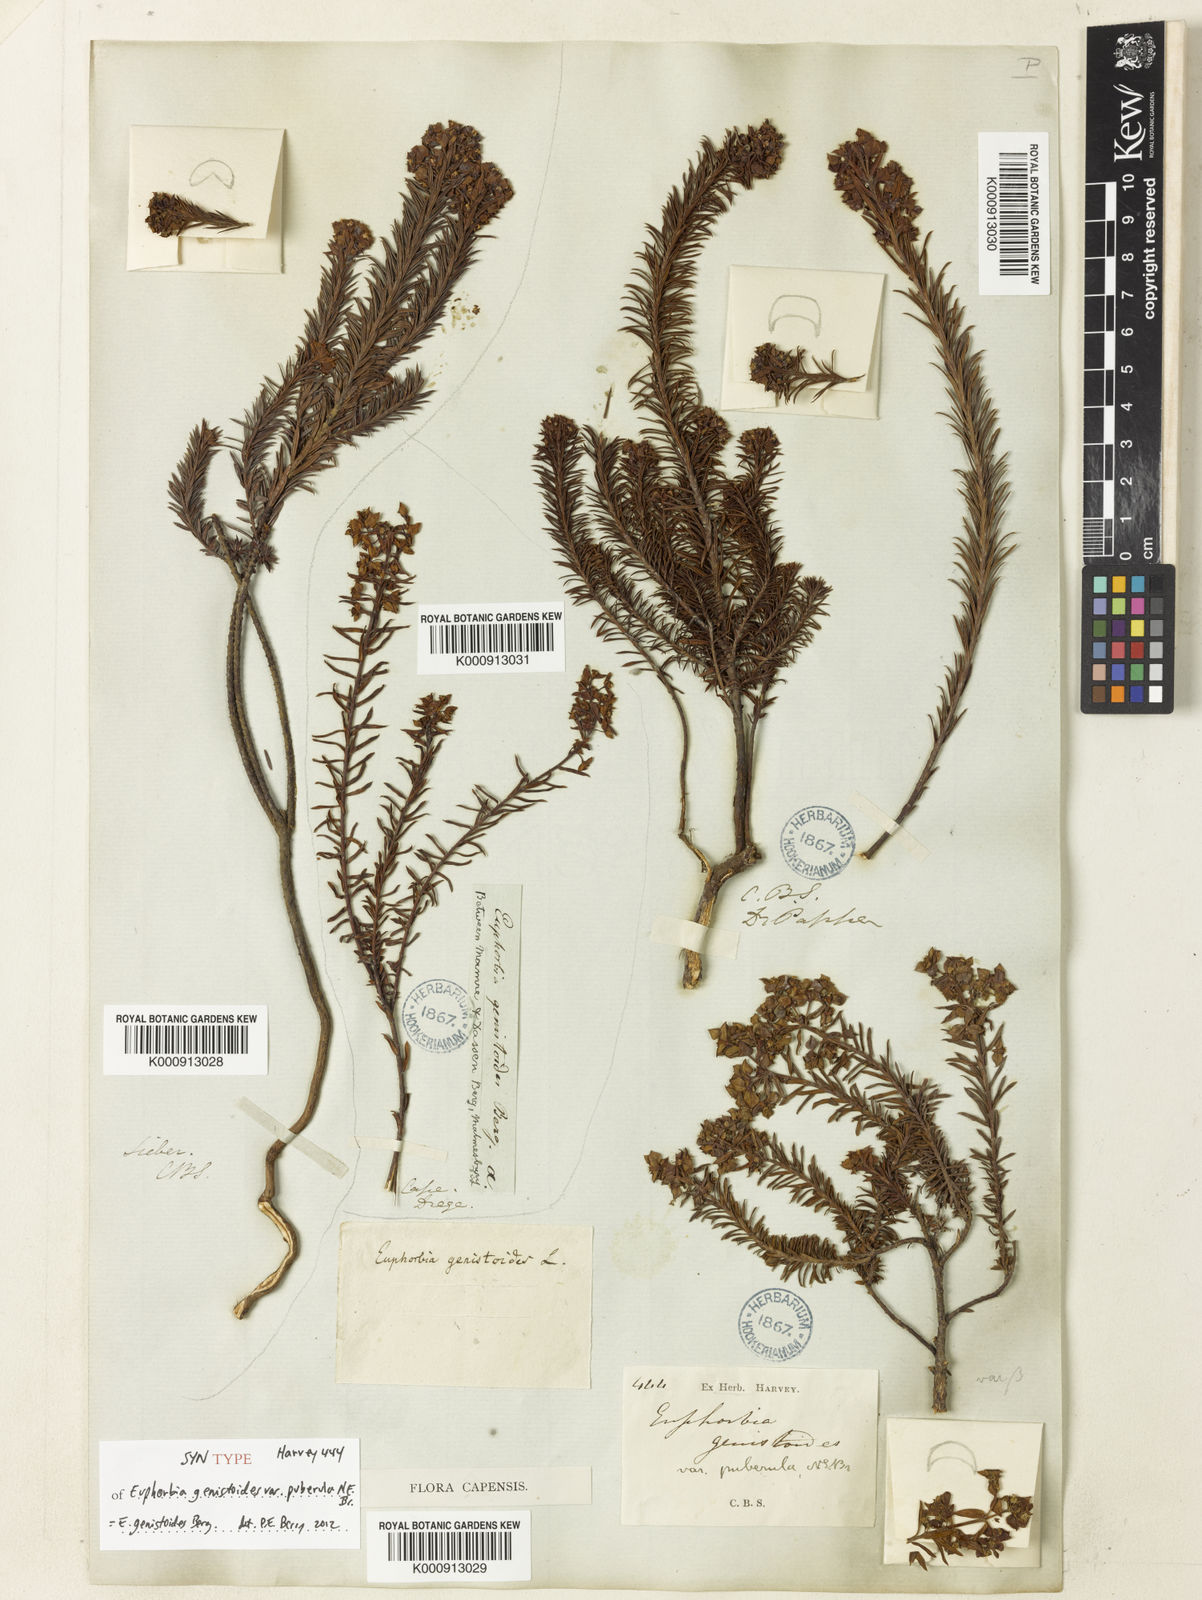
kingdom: Plantae
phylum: Tracheophyta
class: Magnoliopsida
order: Malpighiales
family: Euphorbiaceae
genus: Euphorbia
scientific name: Euphorbia genistoides
